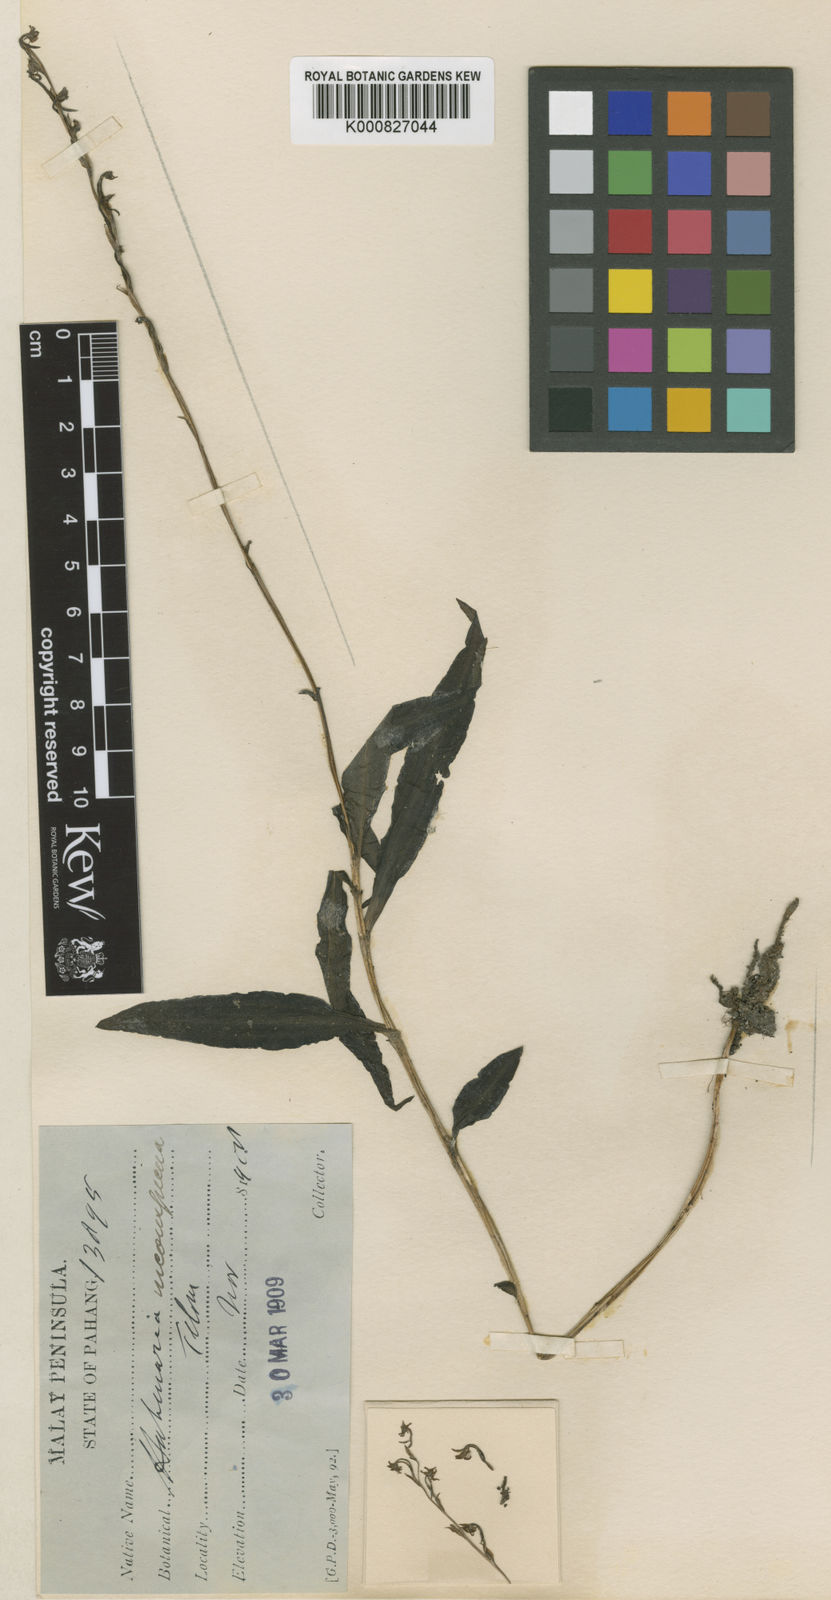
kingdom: Plantae
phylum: Tracheophyta
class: Liliopsida
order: Asparagales
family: Orchidaceae
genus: Peristylus
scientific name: Peristylus gracilis
